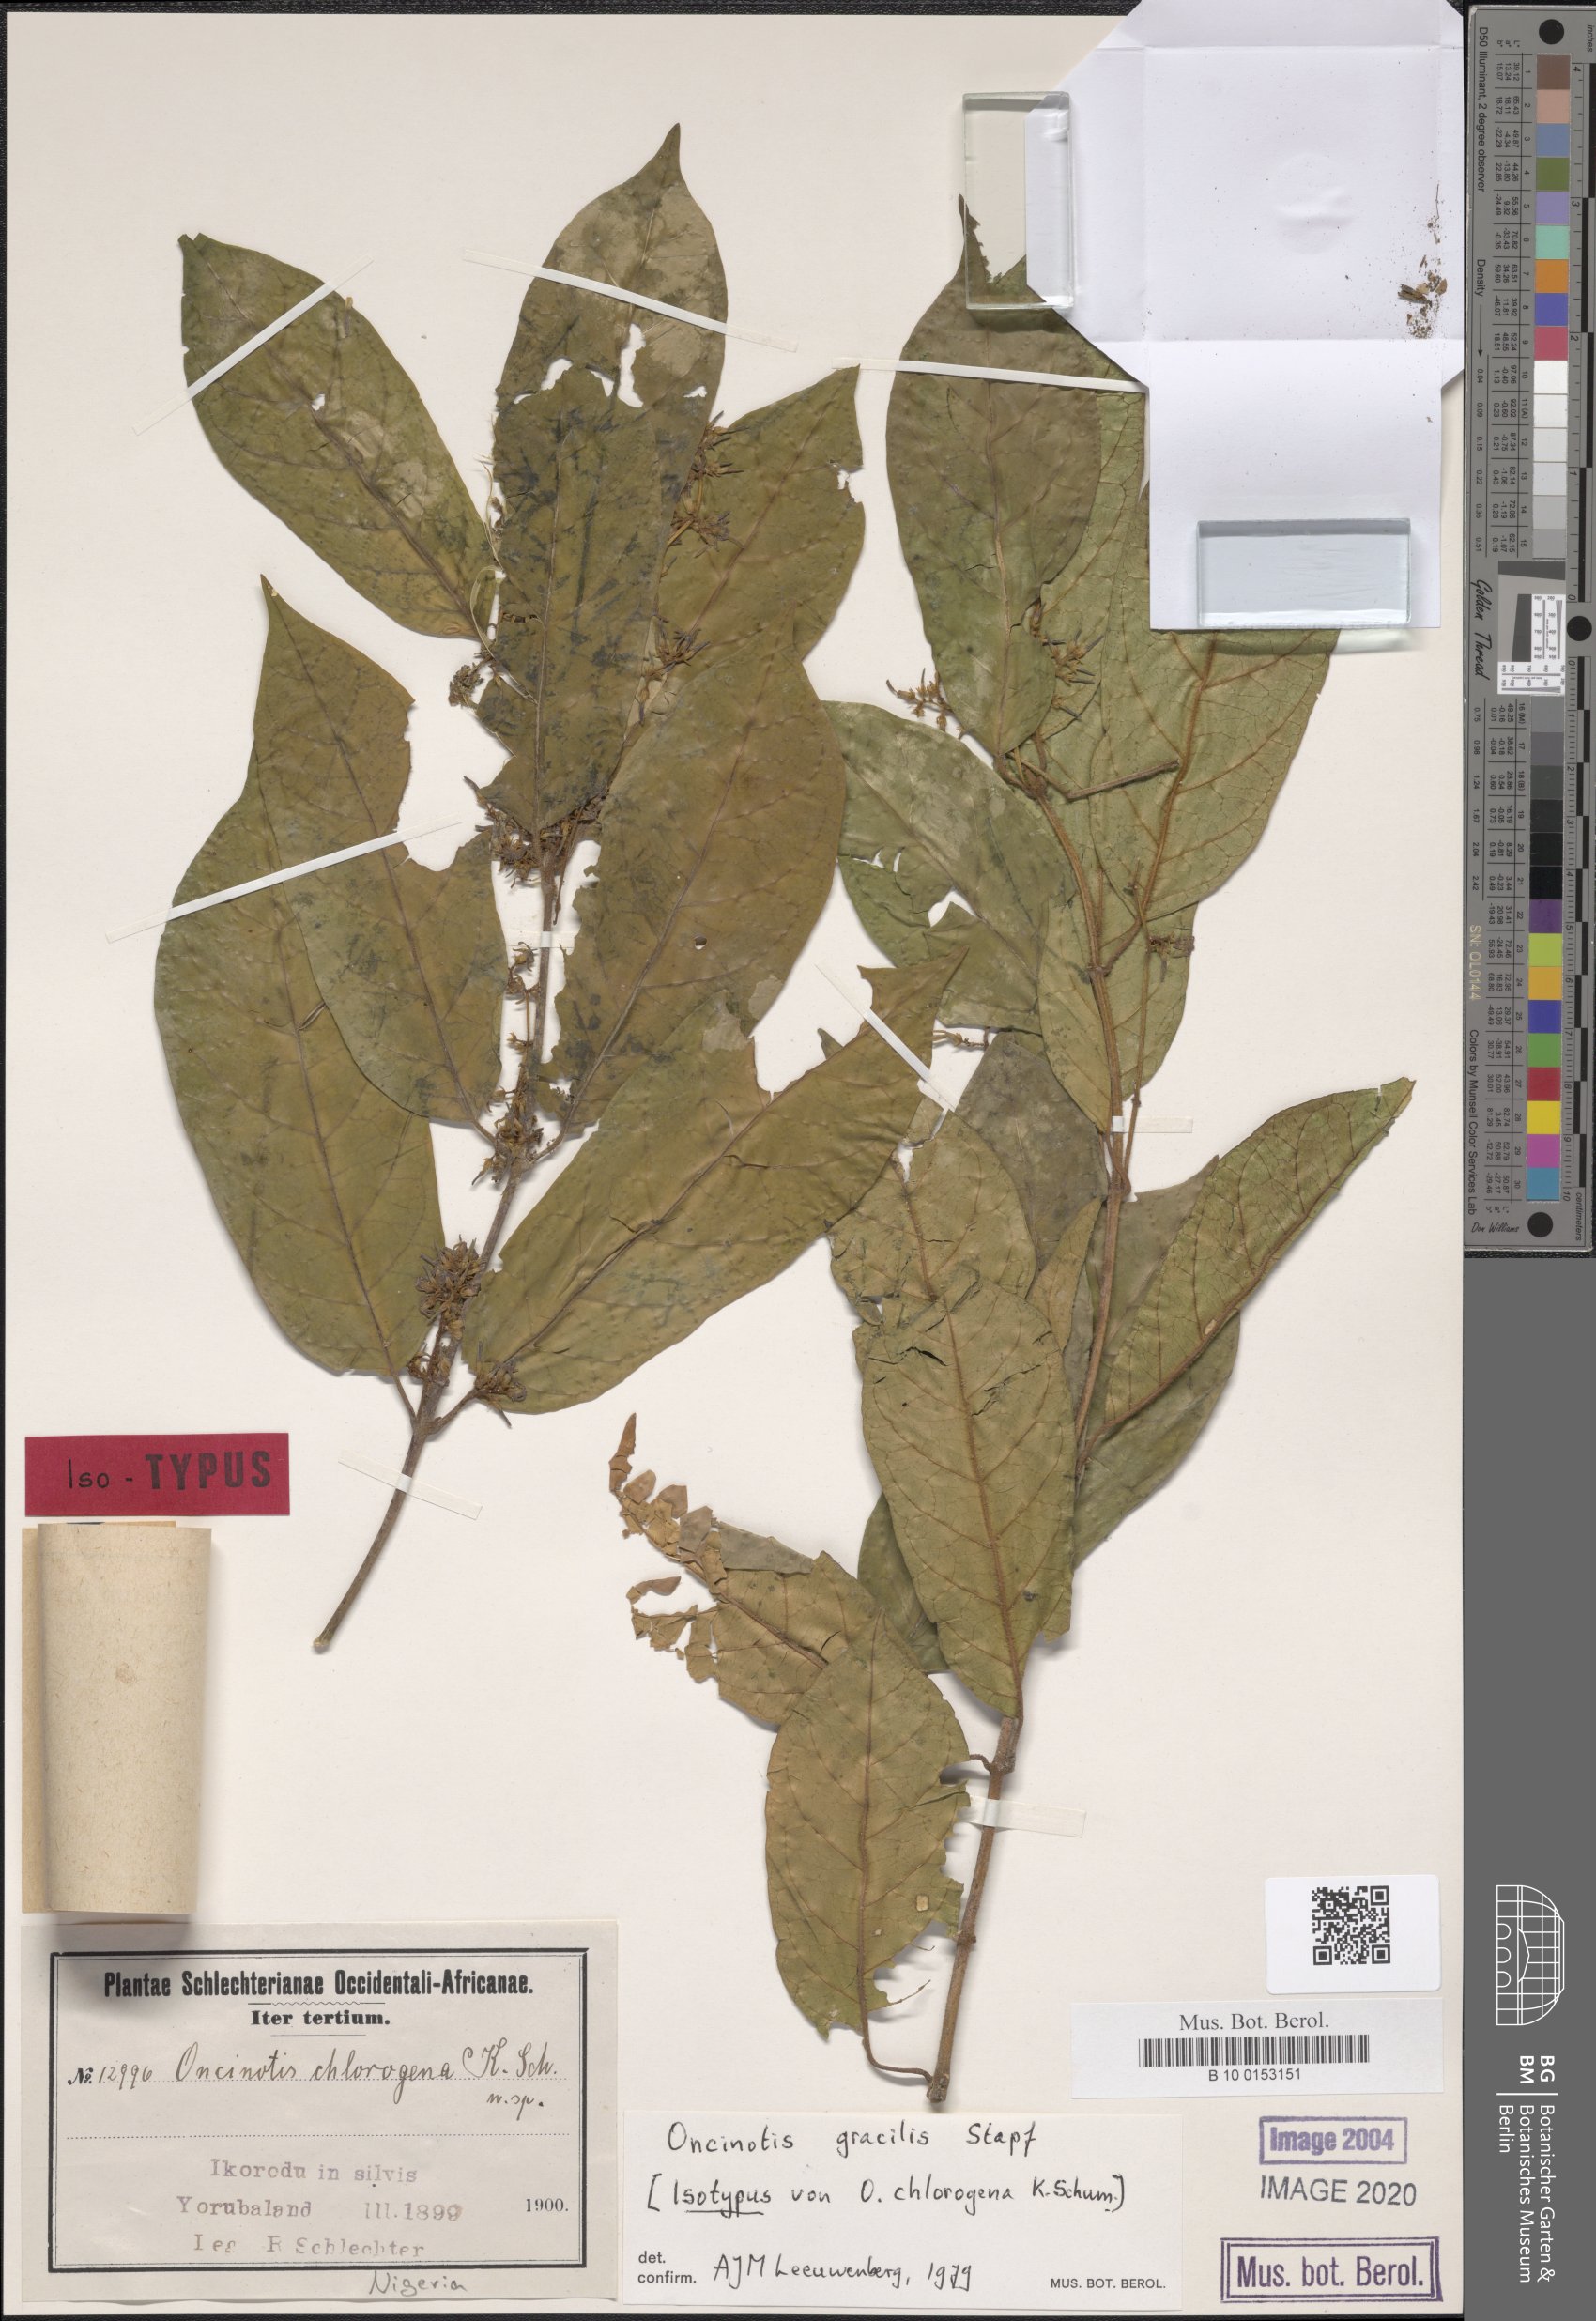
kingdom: Plantae
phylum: Tracheophyta
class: Magnoliopsida
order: Gentianales
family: Apocynaceae
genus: Oncinotis
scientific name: Oncinotis gracilis
